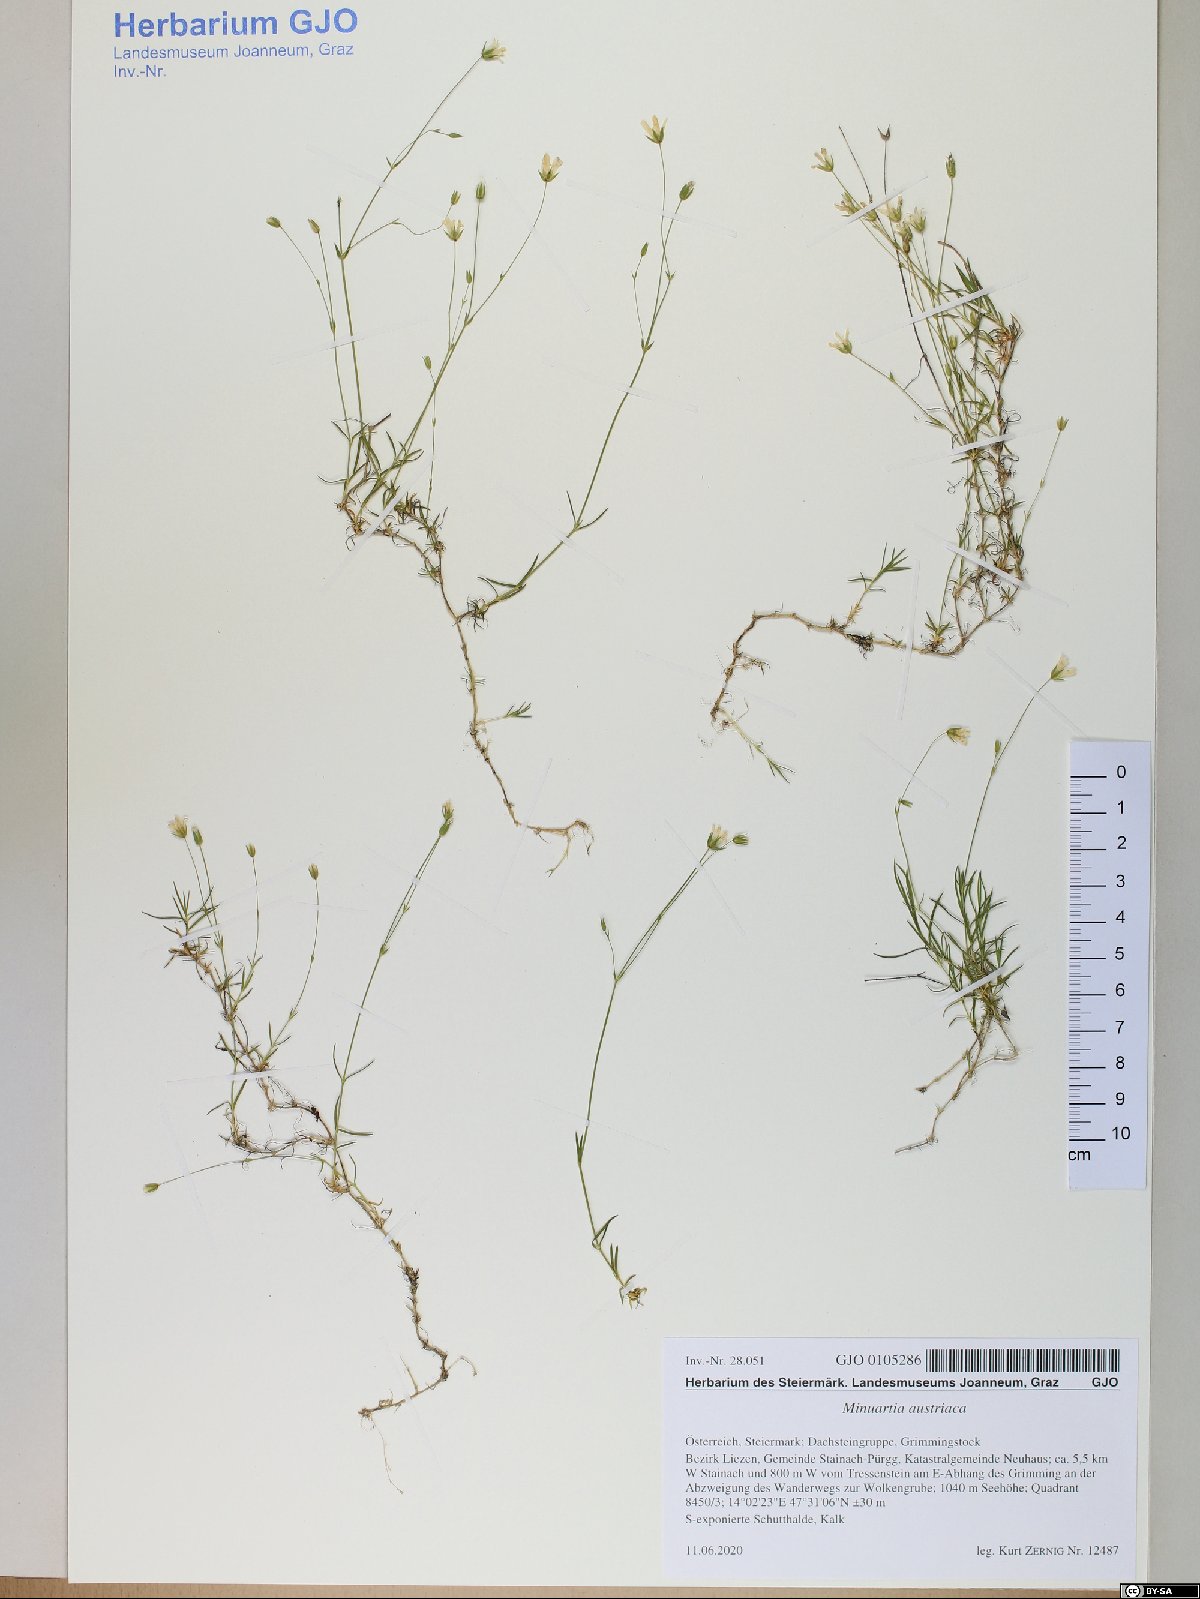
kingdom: Plantae
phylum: Tracheophyta
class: Magnoliopsida
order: Caryophyllales
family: Caryophyllaceae
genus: Sabulina
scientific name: Sabulina austriaca
